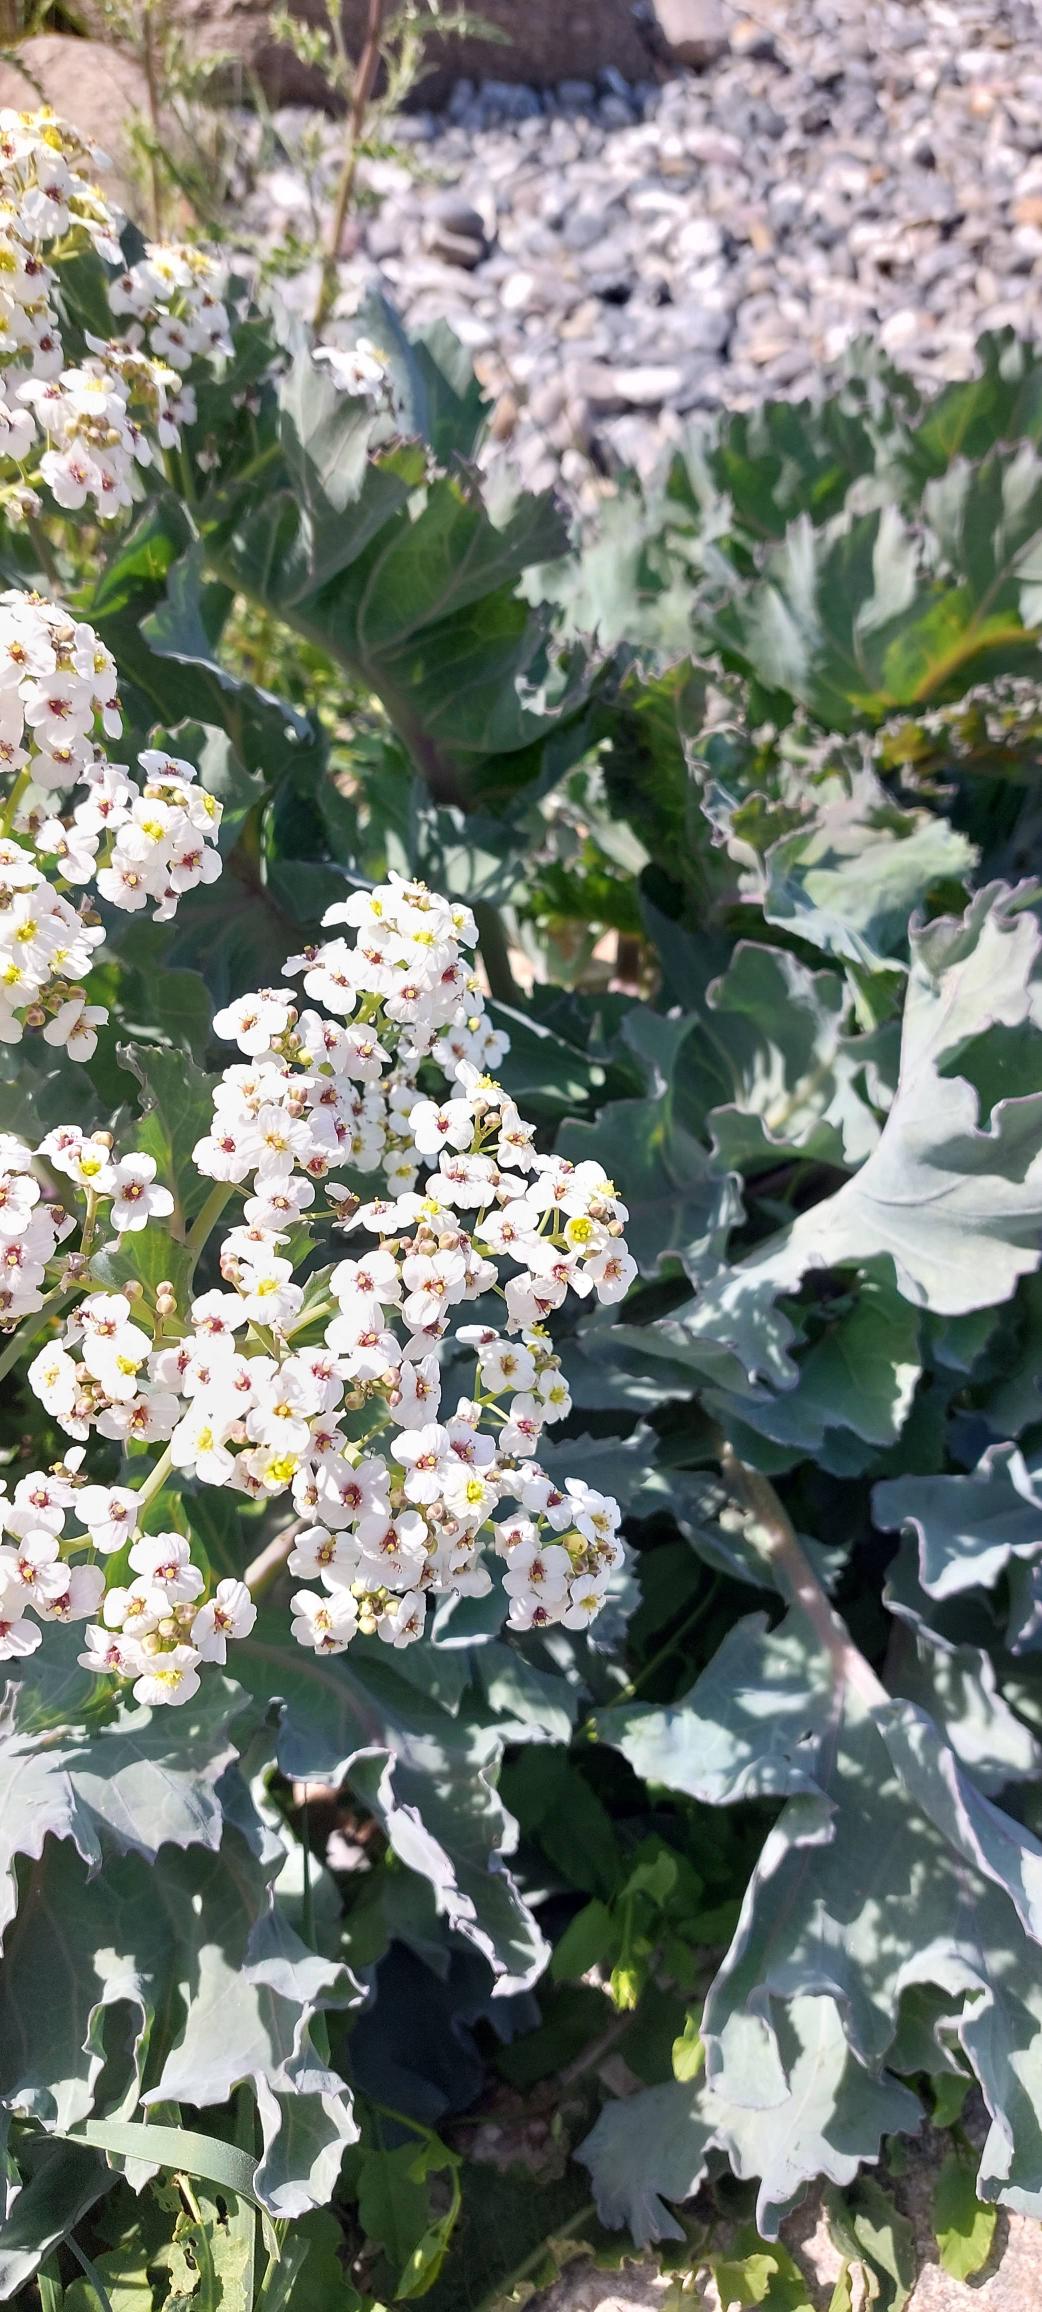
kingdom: Plantae
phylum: Tracheophyta
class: Magnoliopsida
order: Brassicales
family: Brassicaceae
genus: Crambe
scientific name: Crambe maritima
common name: Strandkål
